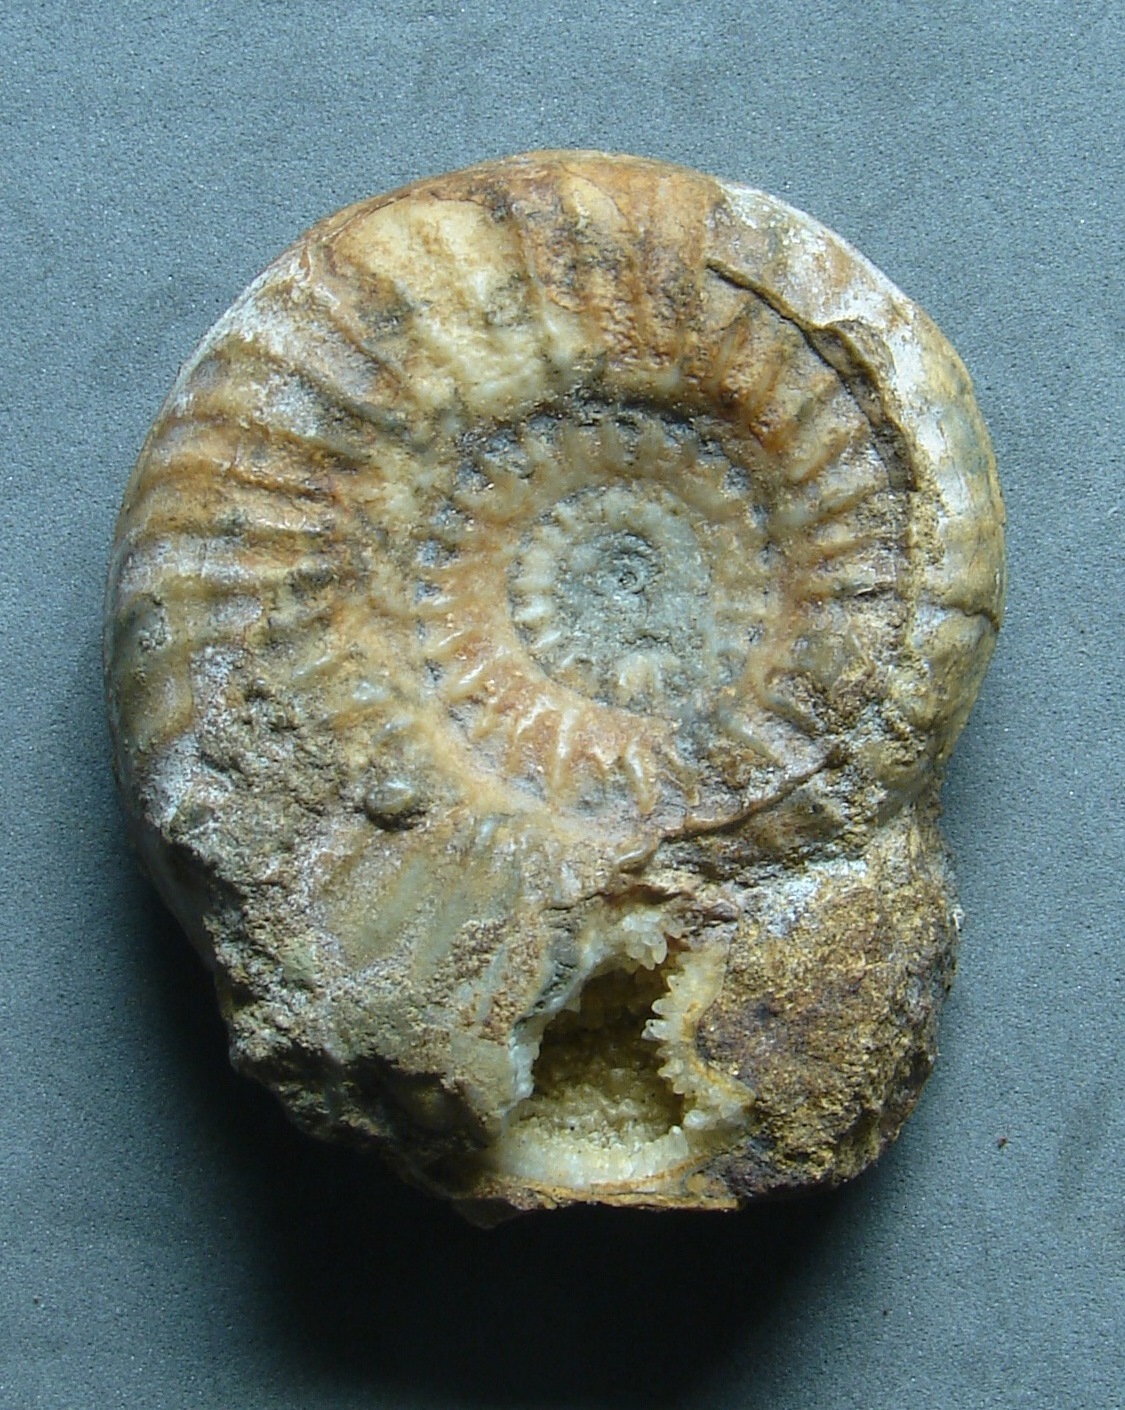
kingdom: Animalia
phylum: Mollusca
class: Cephalopoda
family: Hildoceratidae
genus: Dumortieria
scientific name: Dumortieria costula
